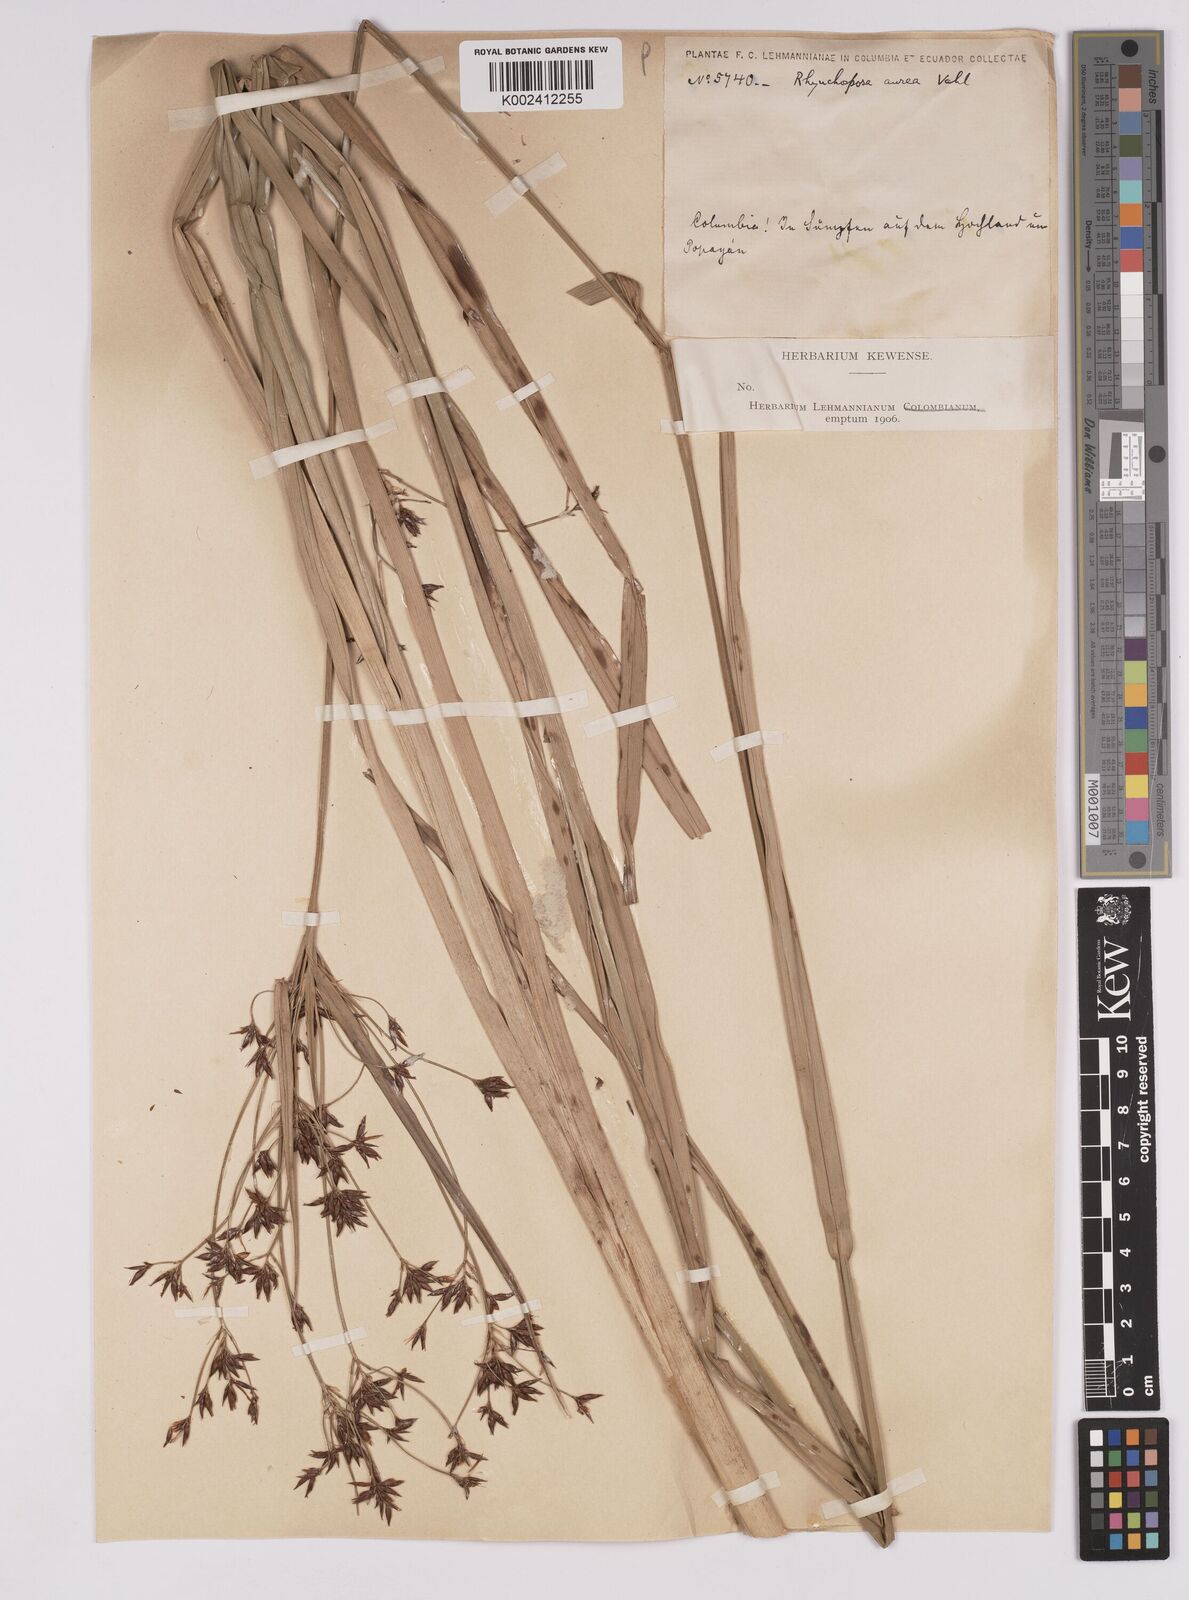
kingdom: Plantae
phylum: Tracheophyta
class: Liliopsida
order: Poales
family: Cyperaceae
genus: Rhynchospora
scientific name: Rhynchospora corymbosa
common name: Golden beak sedge
